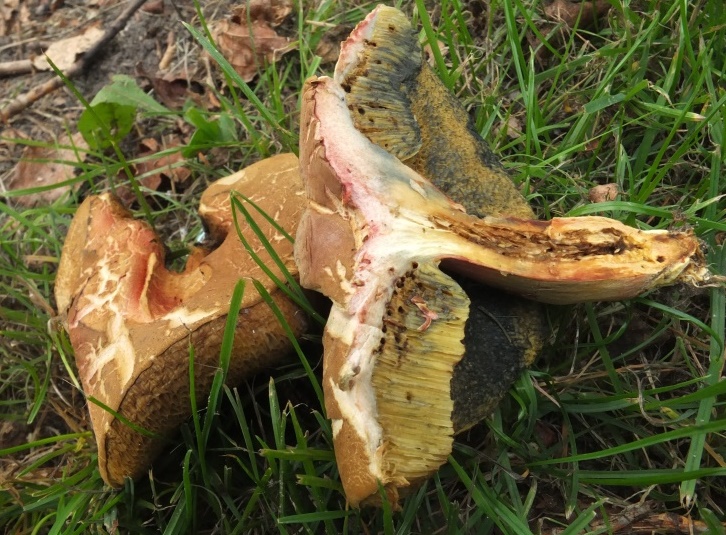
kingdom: Fungi
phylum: Basidiomycota
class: Agaricomycetes
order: Boletales
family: Boletaceae
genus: Hortiboletus
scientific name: Hortiboletus bubalinus
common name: aurora-rørhat
